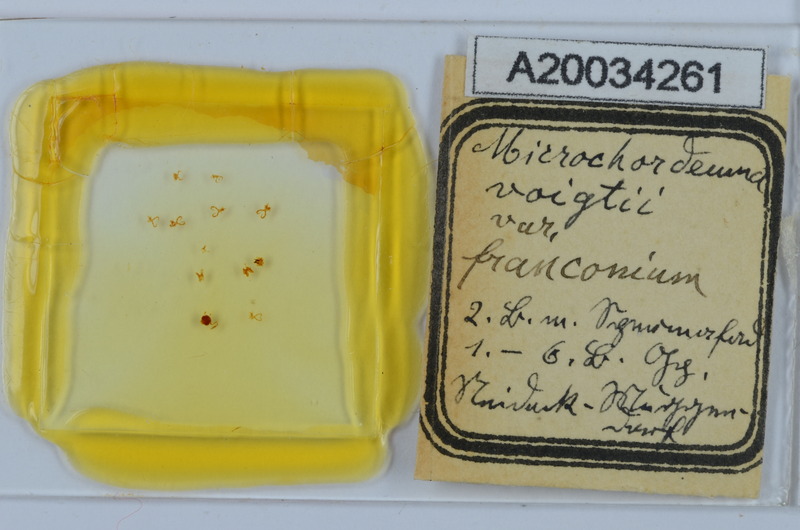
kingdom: Animalia
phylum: Arthropoda
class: Diplopoda
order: Chordeumatida
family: Chordeumatidae
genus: Melogona
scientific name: Melogona voigtii
